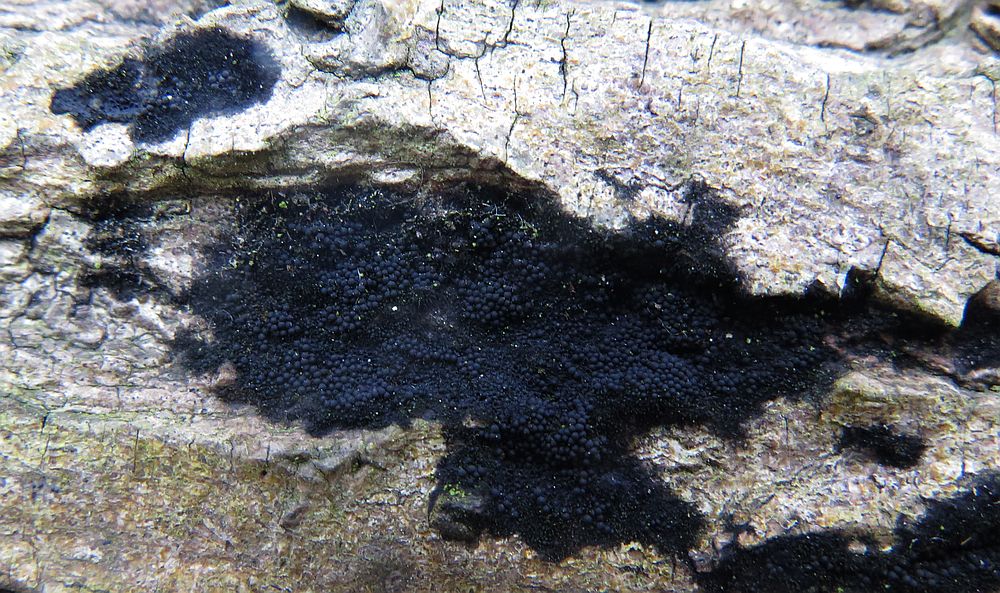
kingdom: Fungi
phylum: Ascomycota
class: Sordariomycetes
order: Coronophorales
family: Chaetosphaerellaceae
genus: Chaetosphaerella
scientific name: Chaetosphaerella phaeostroma
